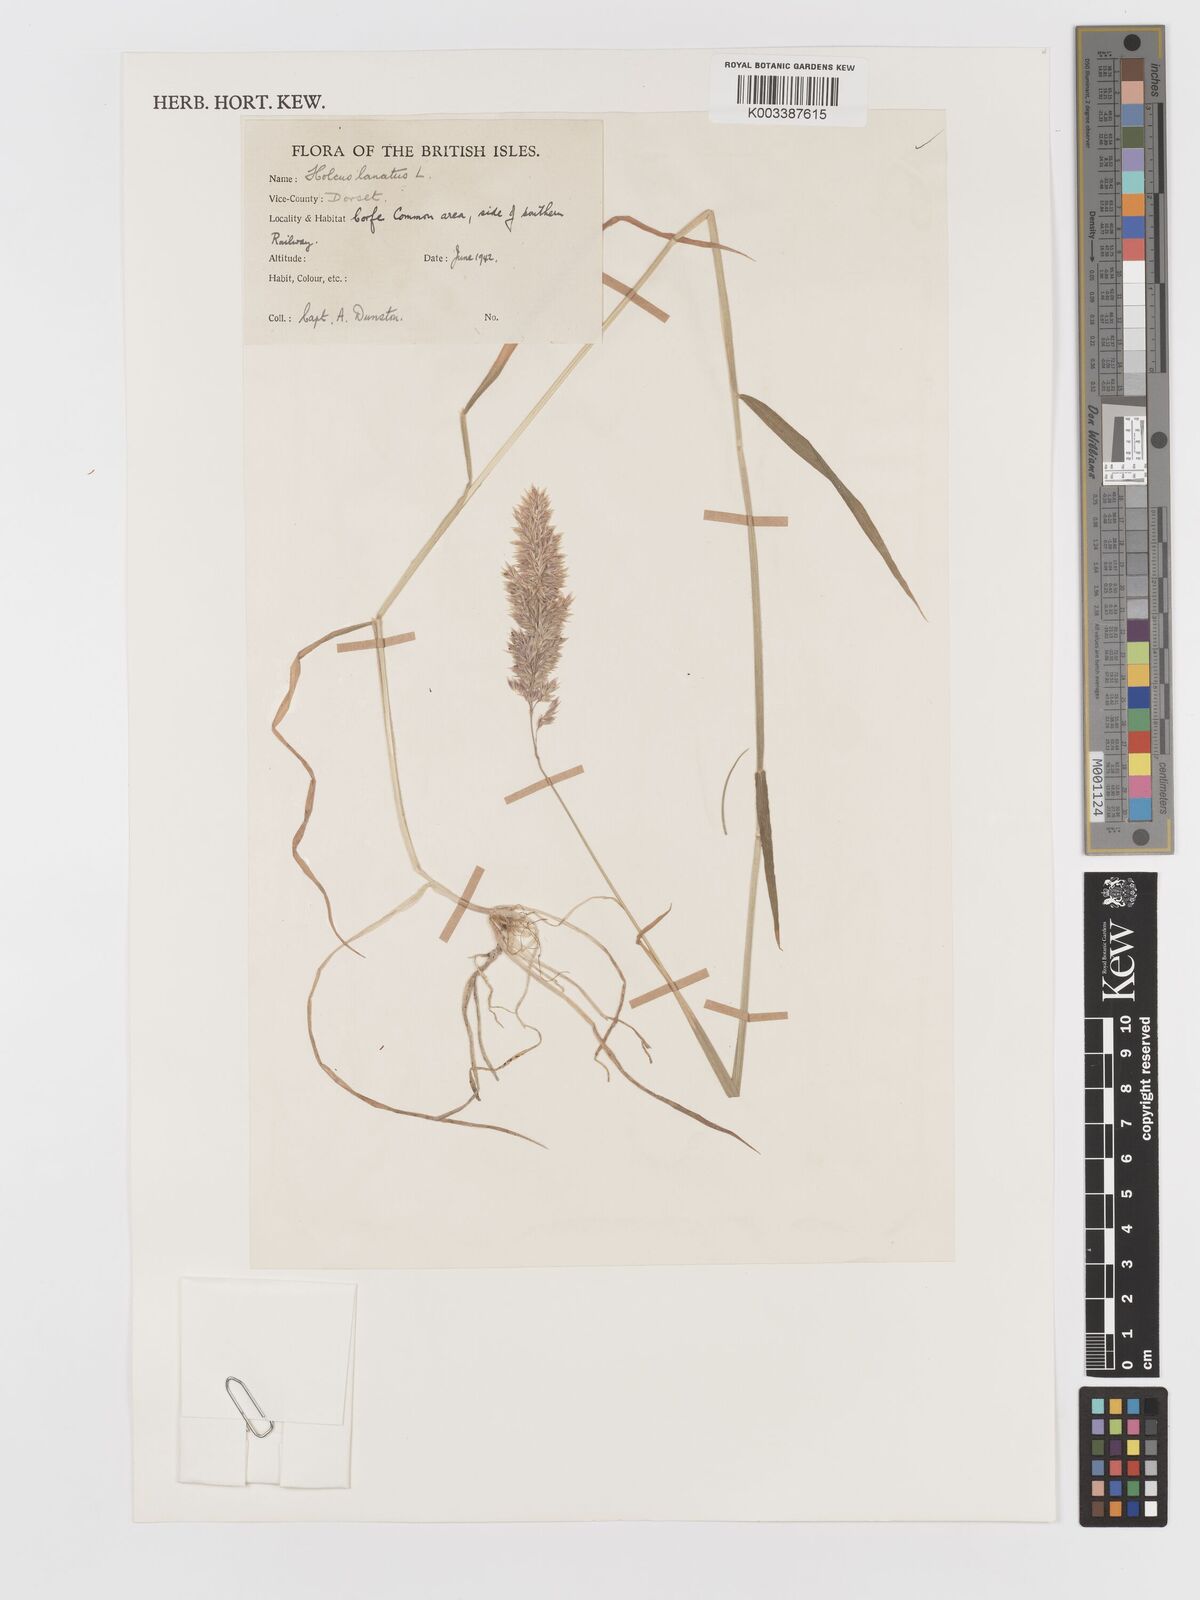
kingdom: Plantae
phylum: Tracheophyta
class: Liliopsida
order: Poales
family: Poaceae
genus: Holcus
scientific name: Holcus lanatus
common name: Yorkshire-fog
